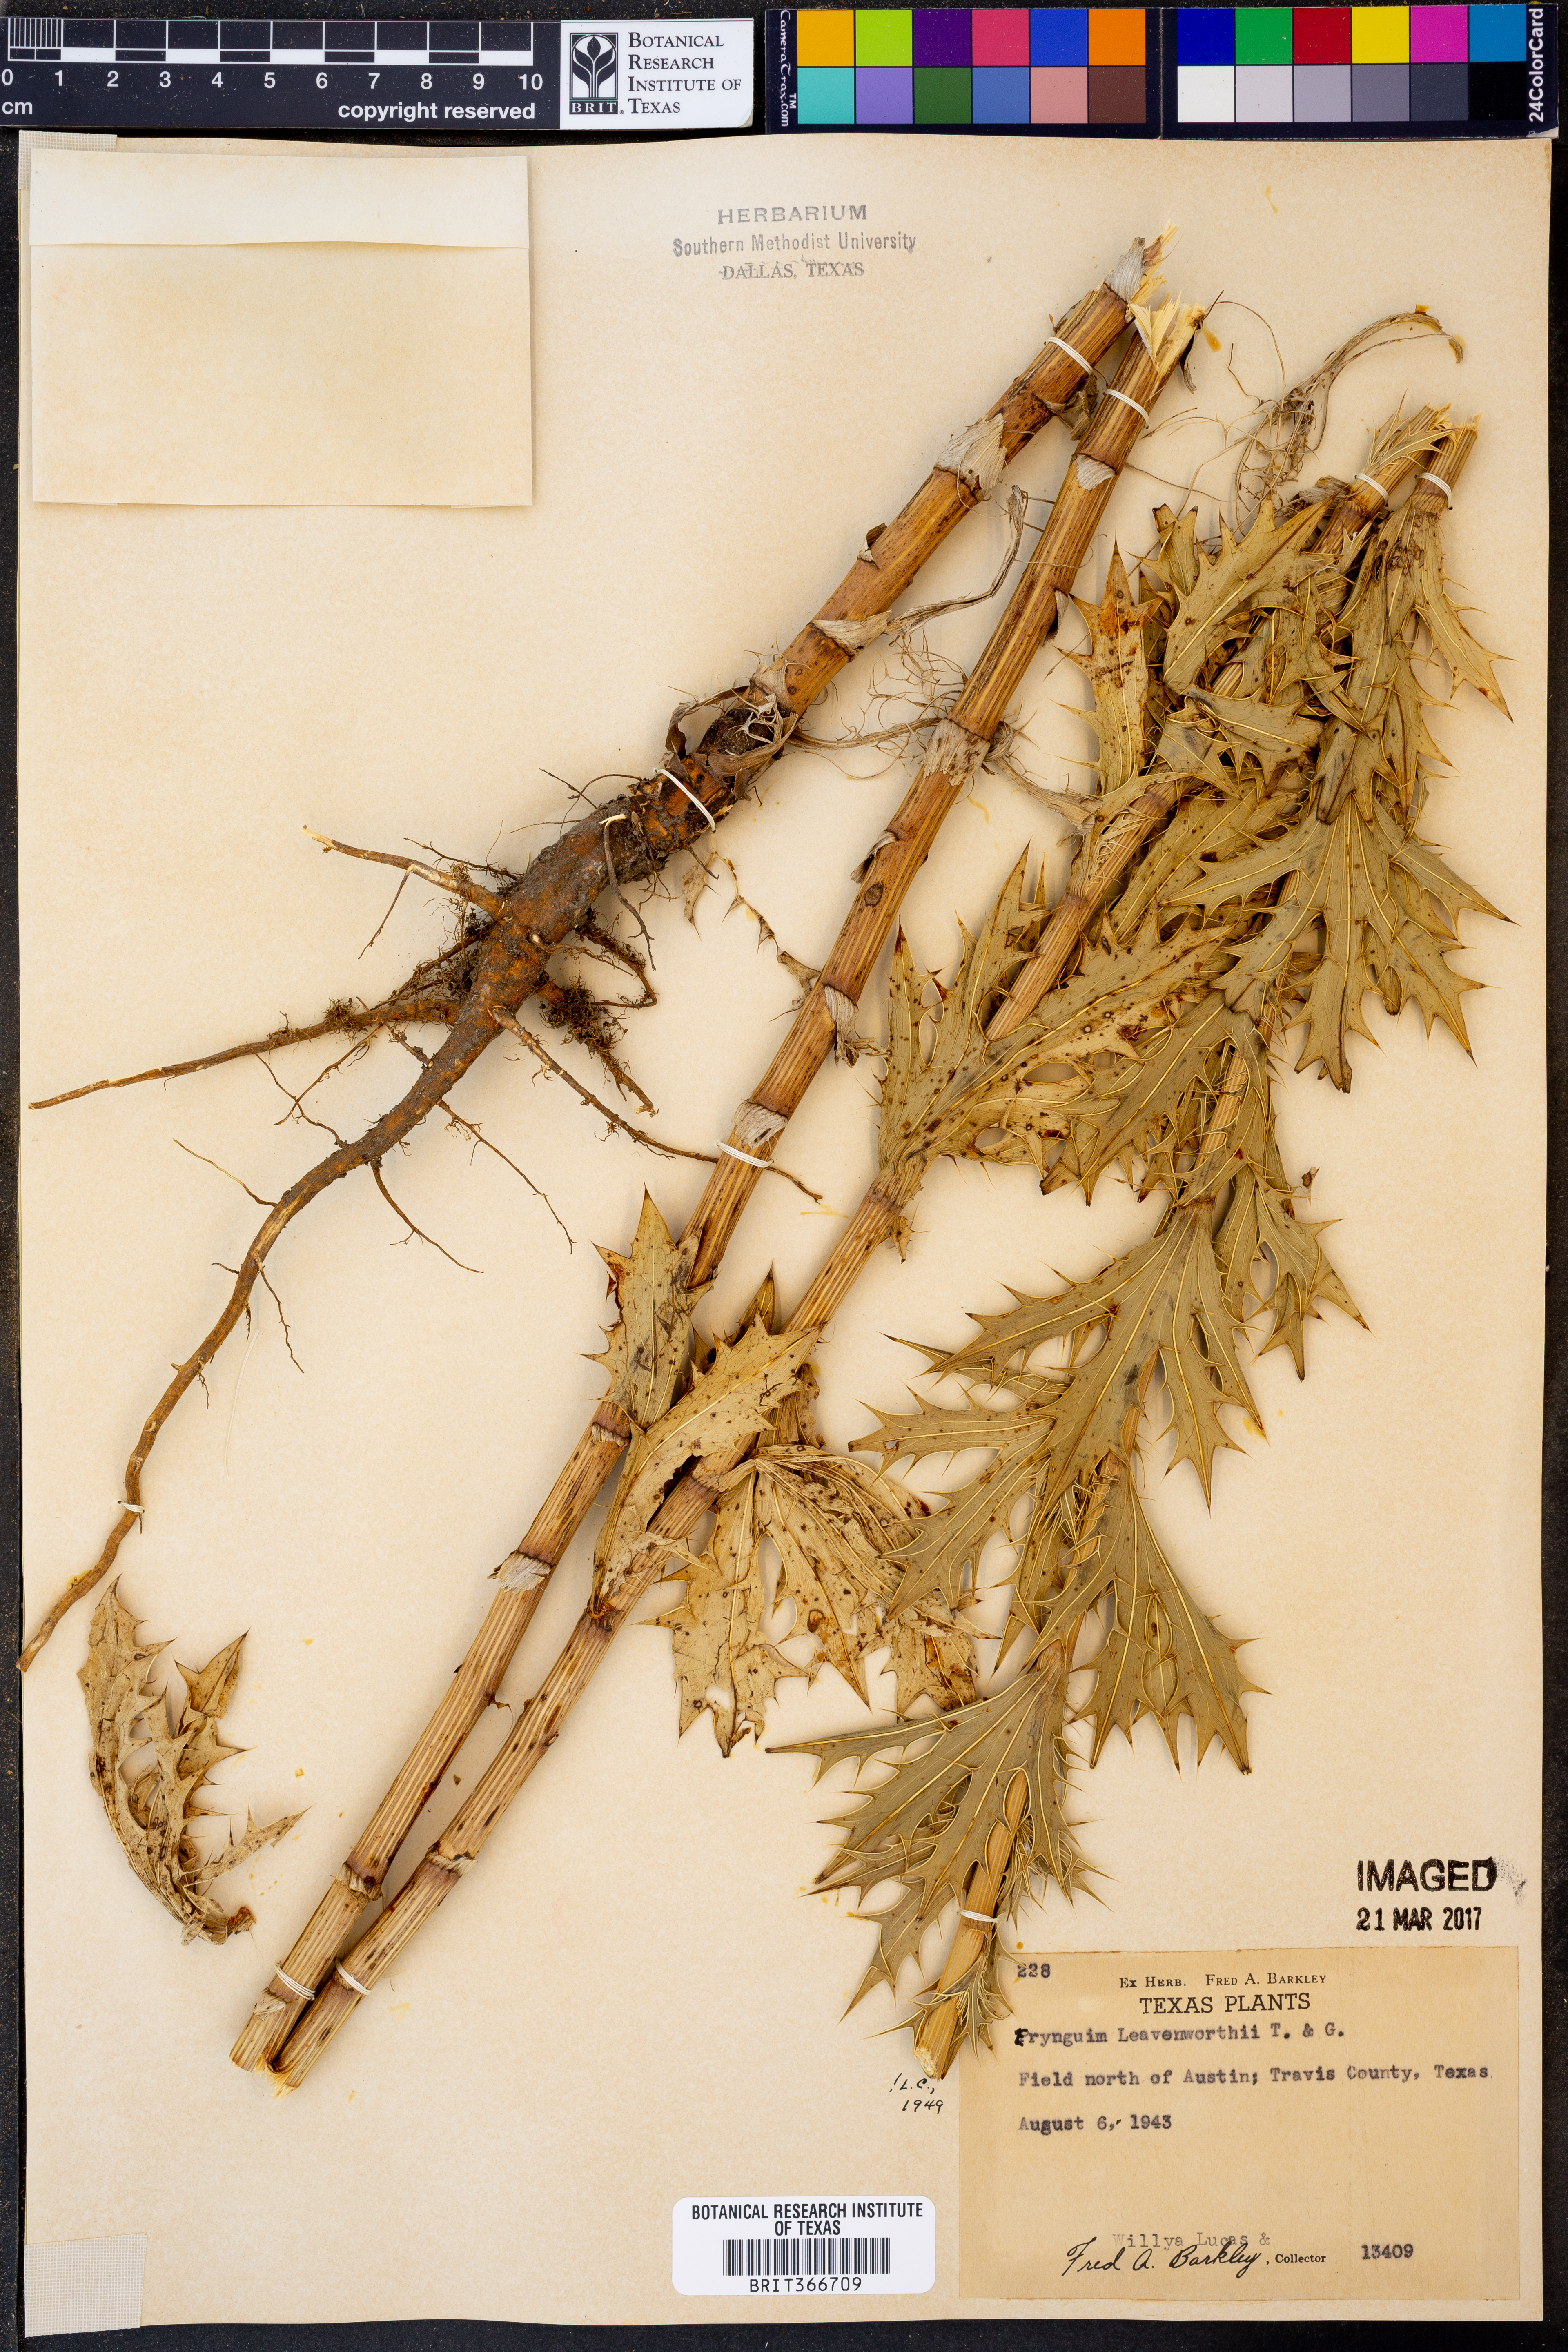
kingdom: Plantae
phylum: Tracheophyta
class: Magnoliopsida
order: Apiales
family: Apiaceae
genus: Eryngium
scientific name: Eryngium leavenworthii
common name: Leavenworth's eryngo
